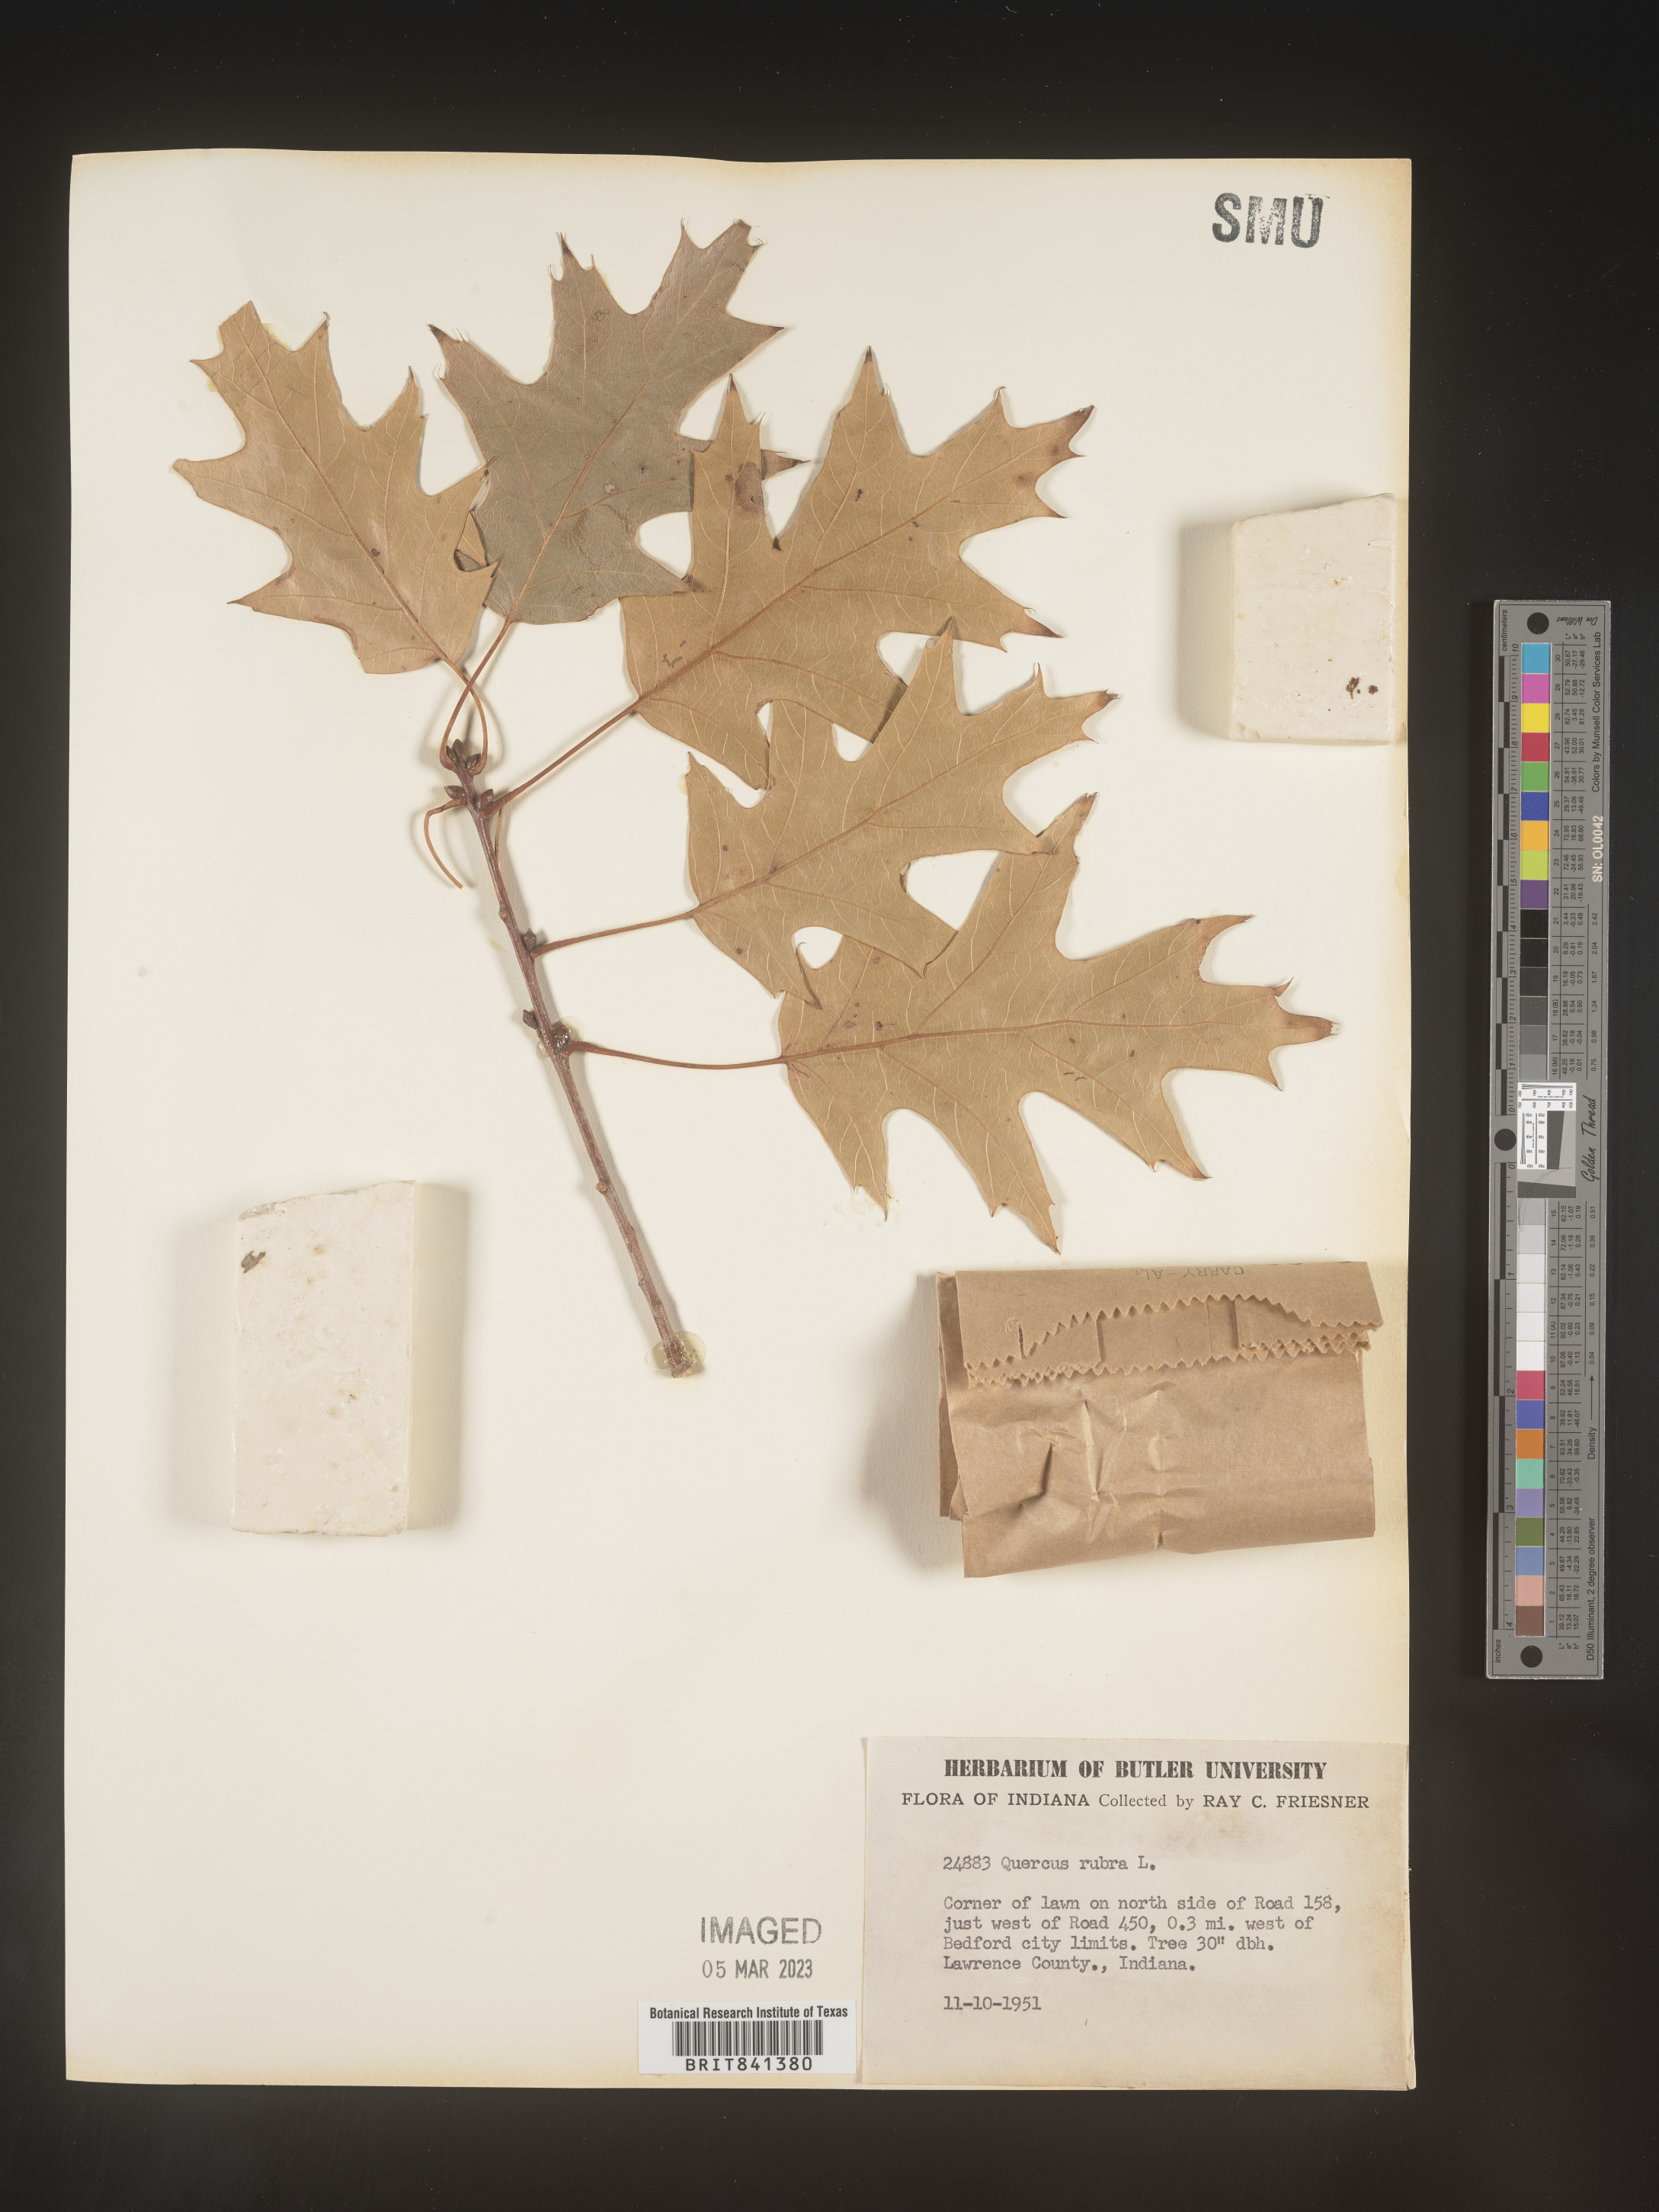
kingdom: Plantae
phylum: Tracheophyta
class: Magnoliopsida
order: Fagales
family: Fagaceae
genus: Quercus
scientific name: Quercus rubra
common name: Red oak
